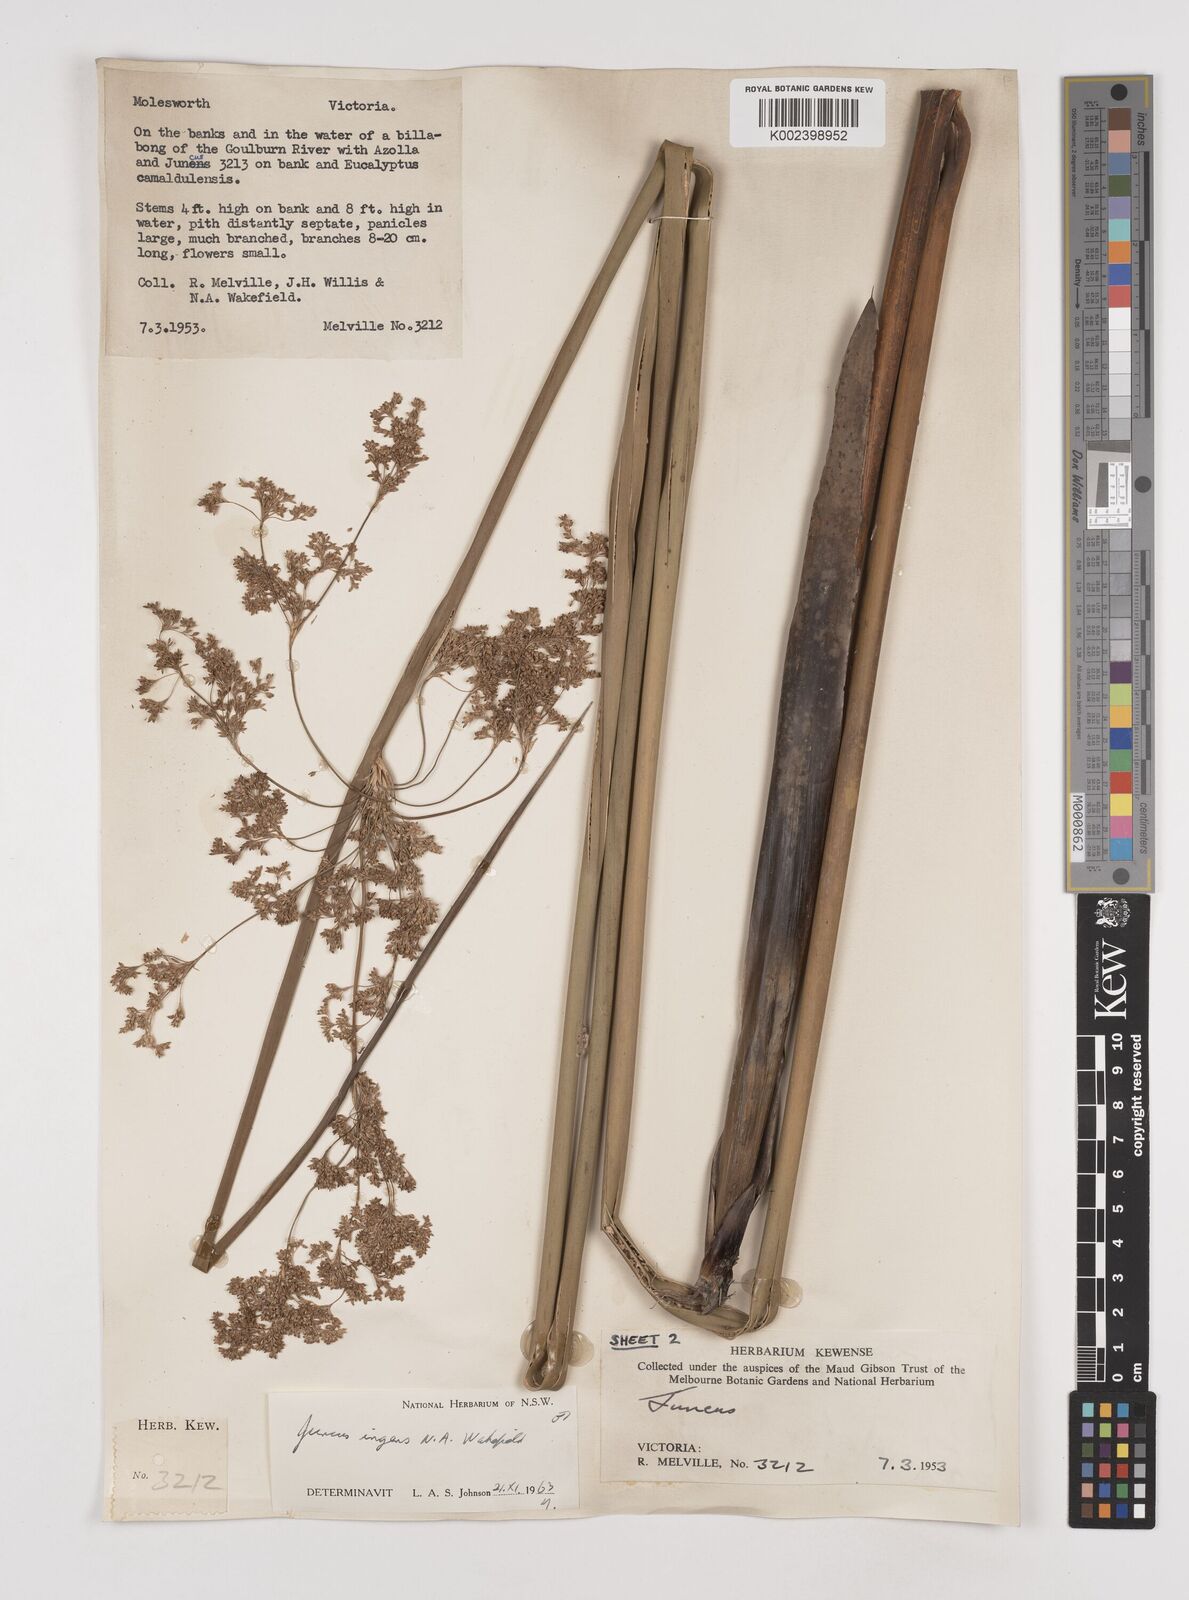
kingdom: Plantae
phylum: Tracheophyta
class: Liliopsida
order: Poales
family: Juncaceae
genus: Juncus
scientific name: Juncus ingens
